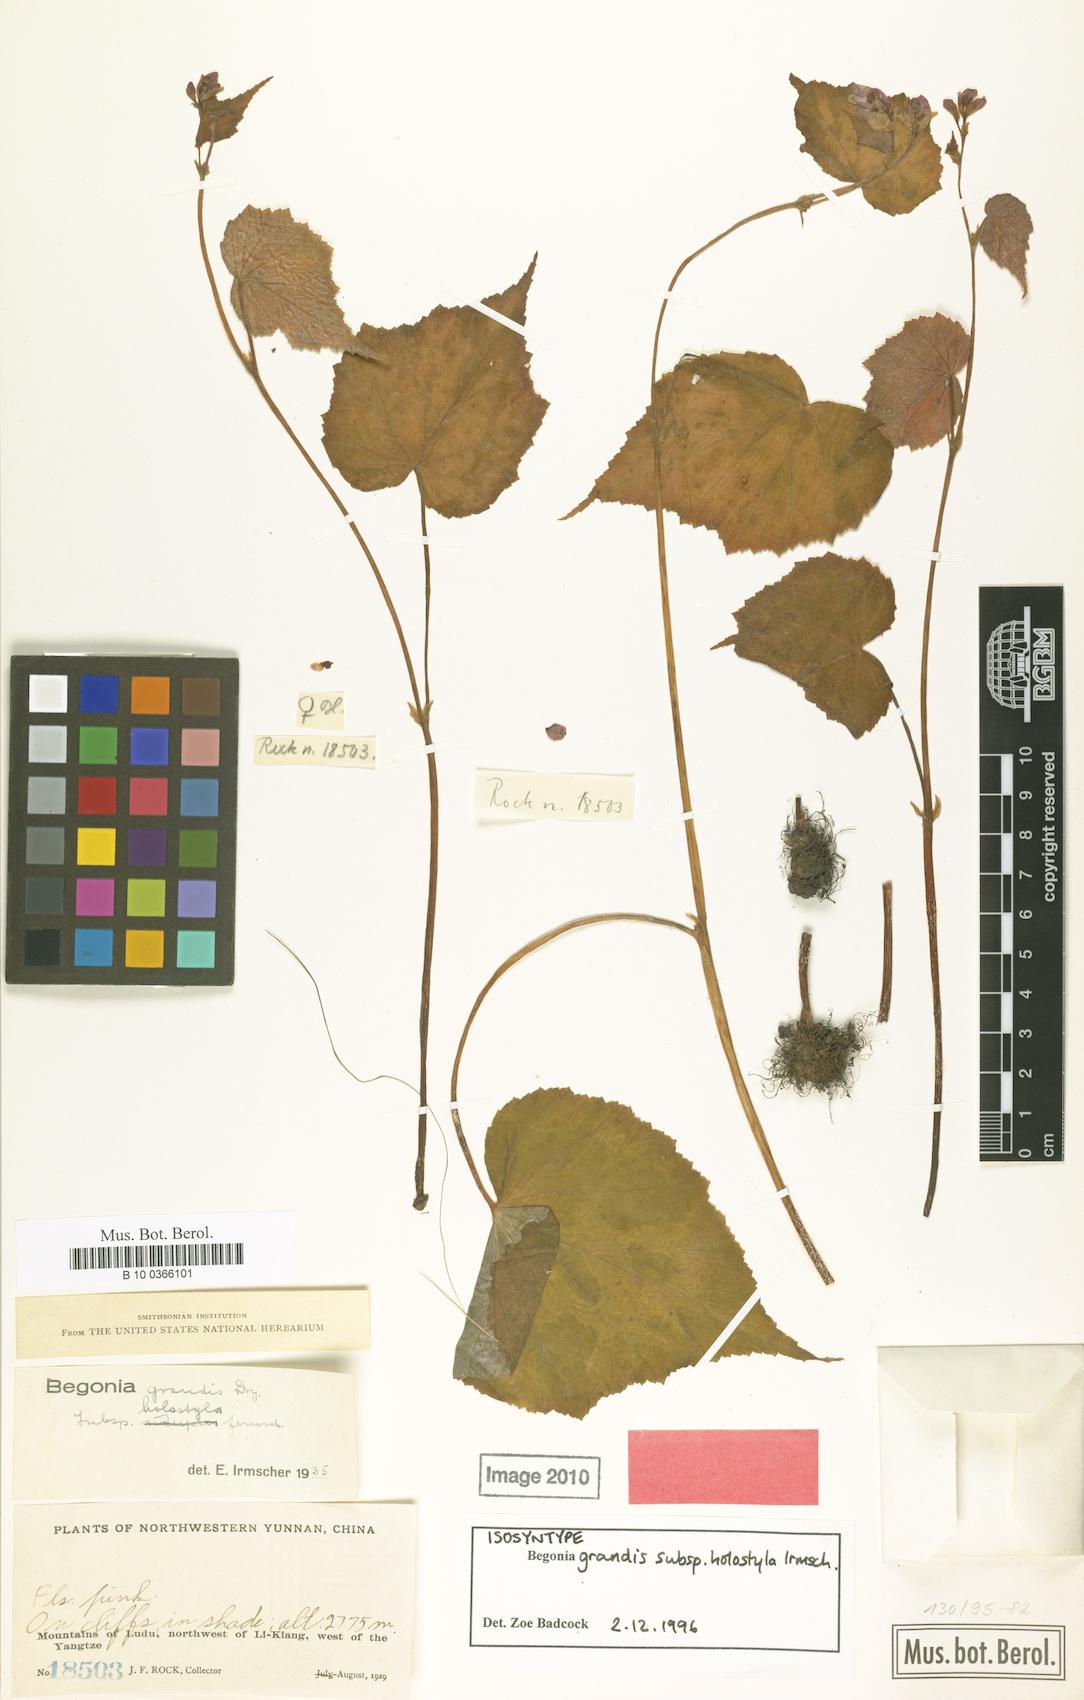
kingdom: Plantae
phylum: Tracheophyta
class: Magnoliopsida
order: Cucurbitales
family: Begoniaceae
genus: Begonia
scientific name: Begonia grandis
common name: Hardy begonia
